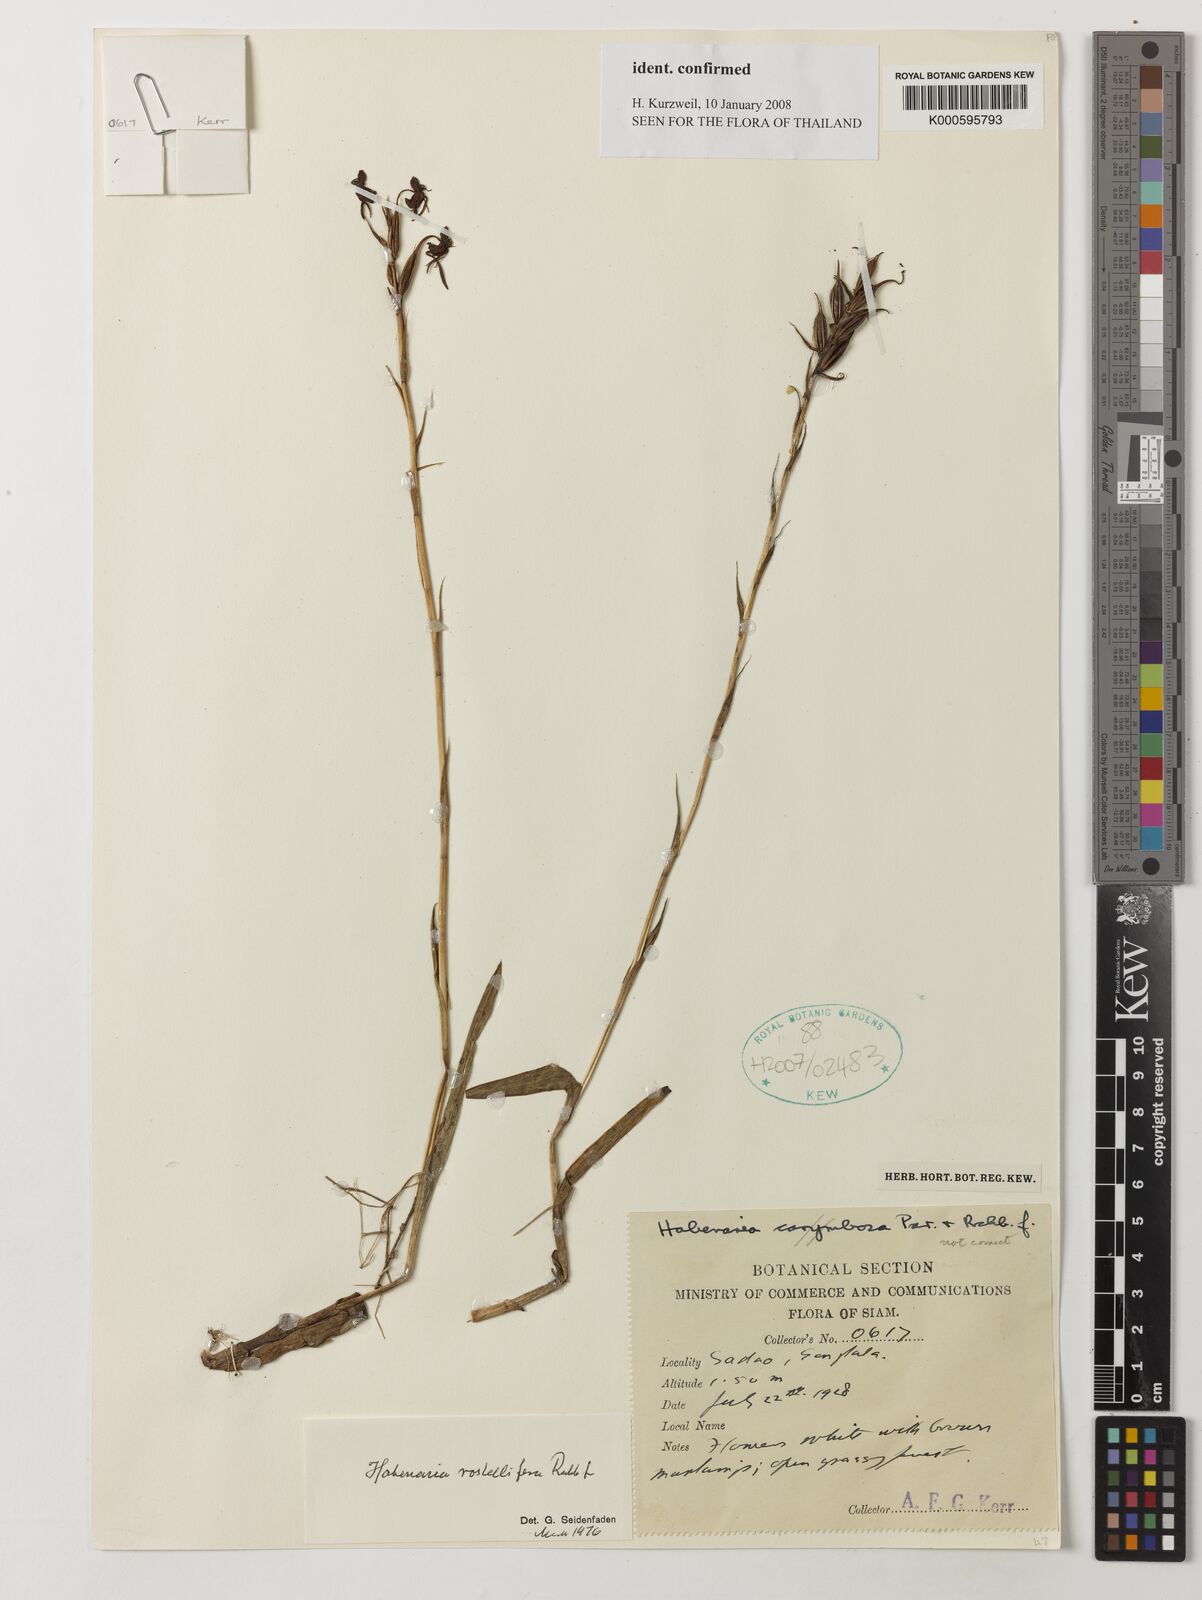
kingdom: Plantae
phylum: Tracheophyta
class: Liliopsida
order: Asparagales
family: Orchidaceae
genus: Habenaria
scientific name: Habenaria rostellifera
